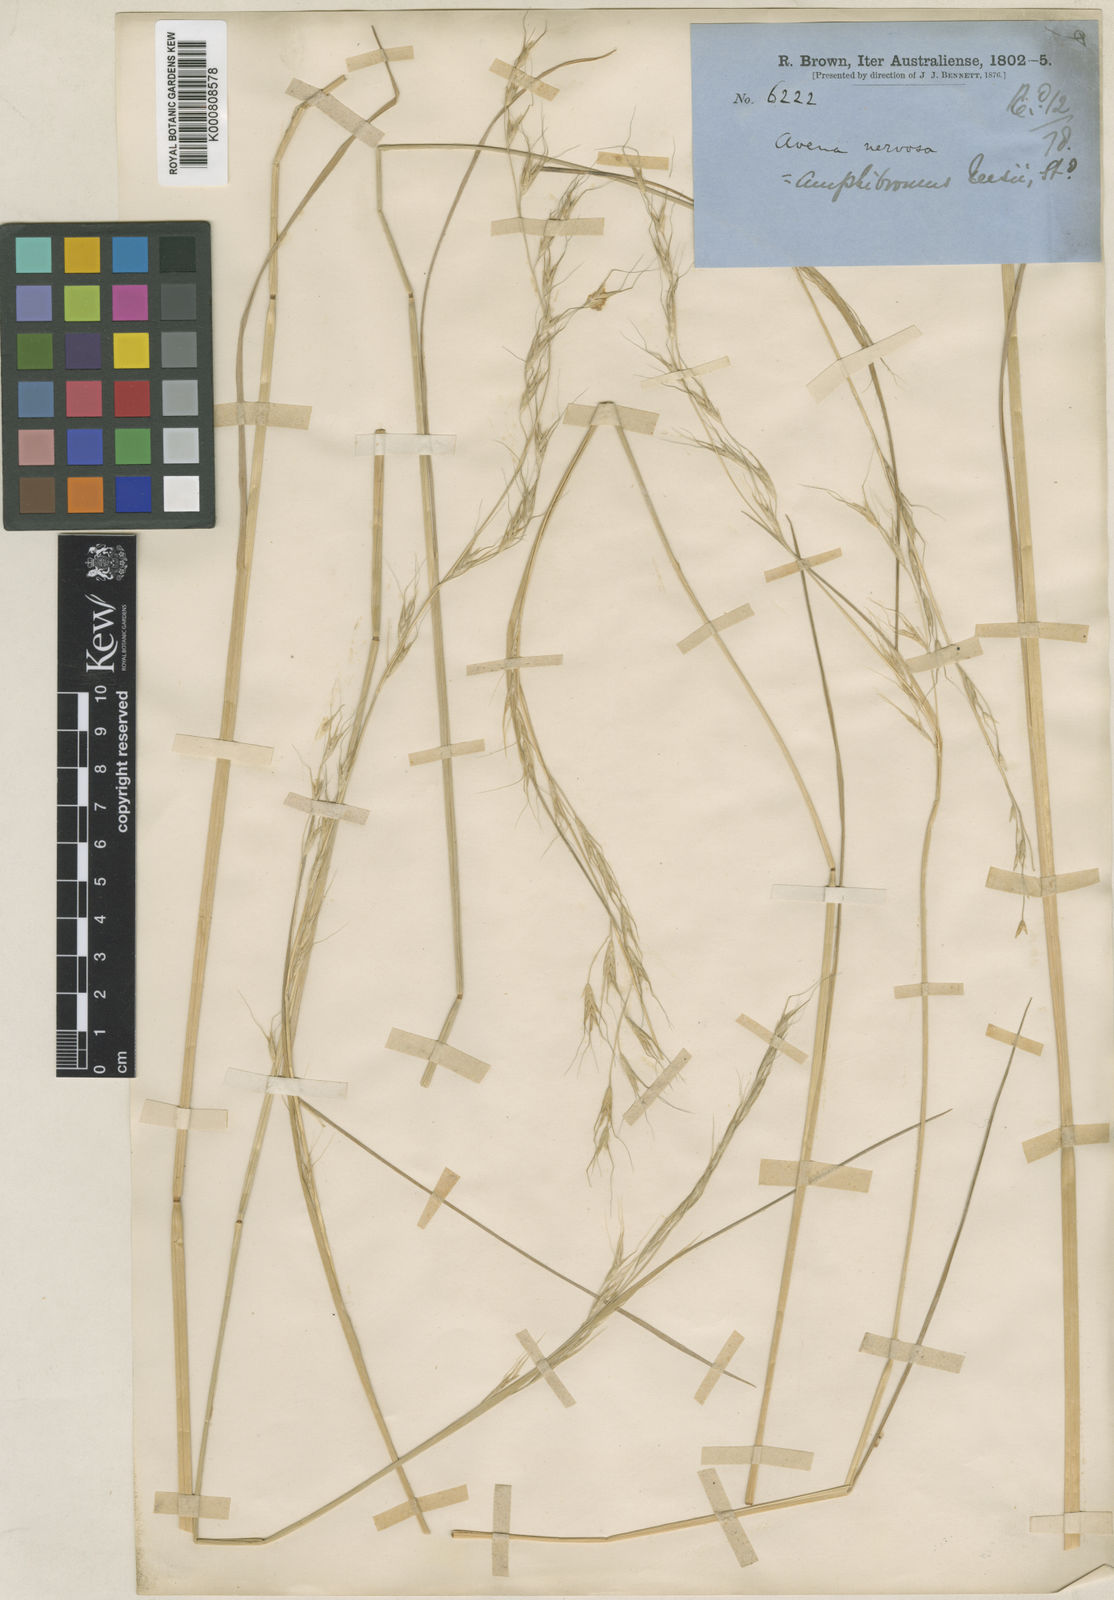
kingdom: Plantae
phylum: Tracheophyta
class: Liliopsida
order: Poales
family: Poaceae
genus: Amphibromus
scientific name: Amphibromus neesii
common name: Australian wallaby grass
